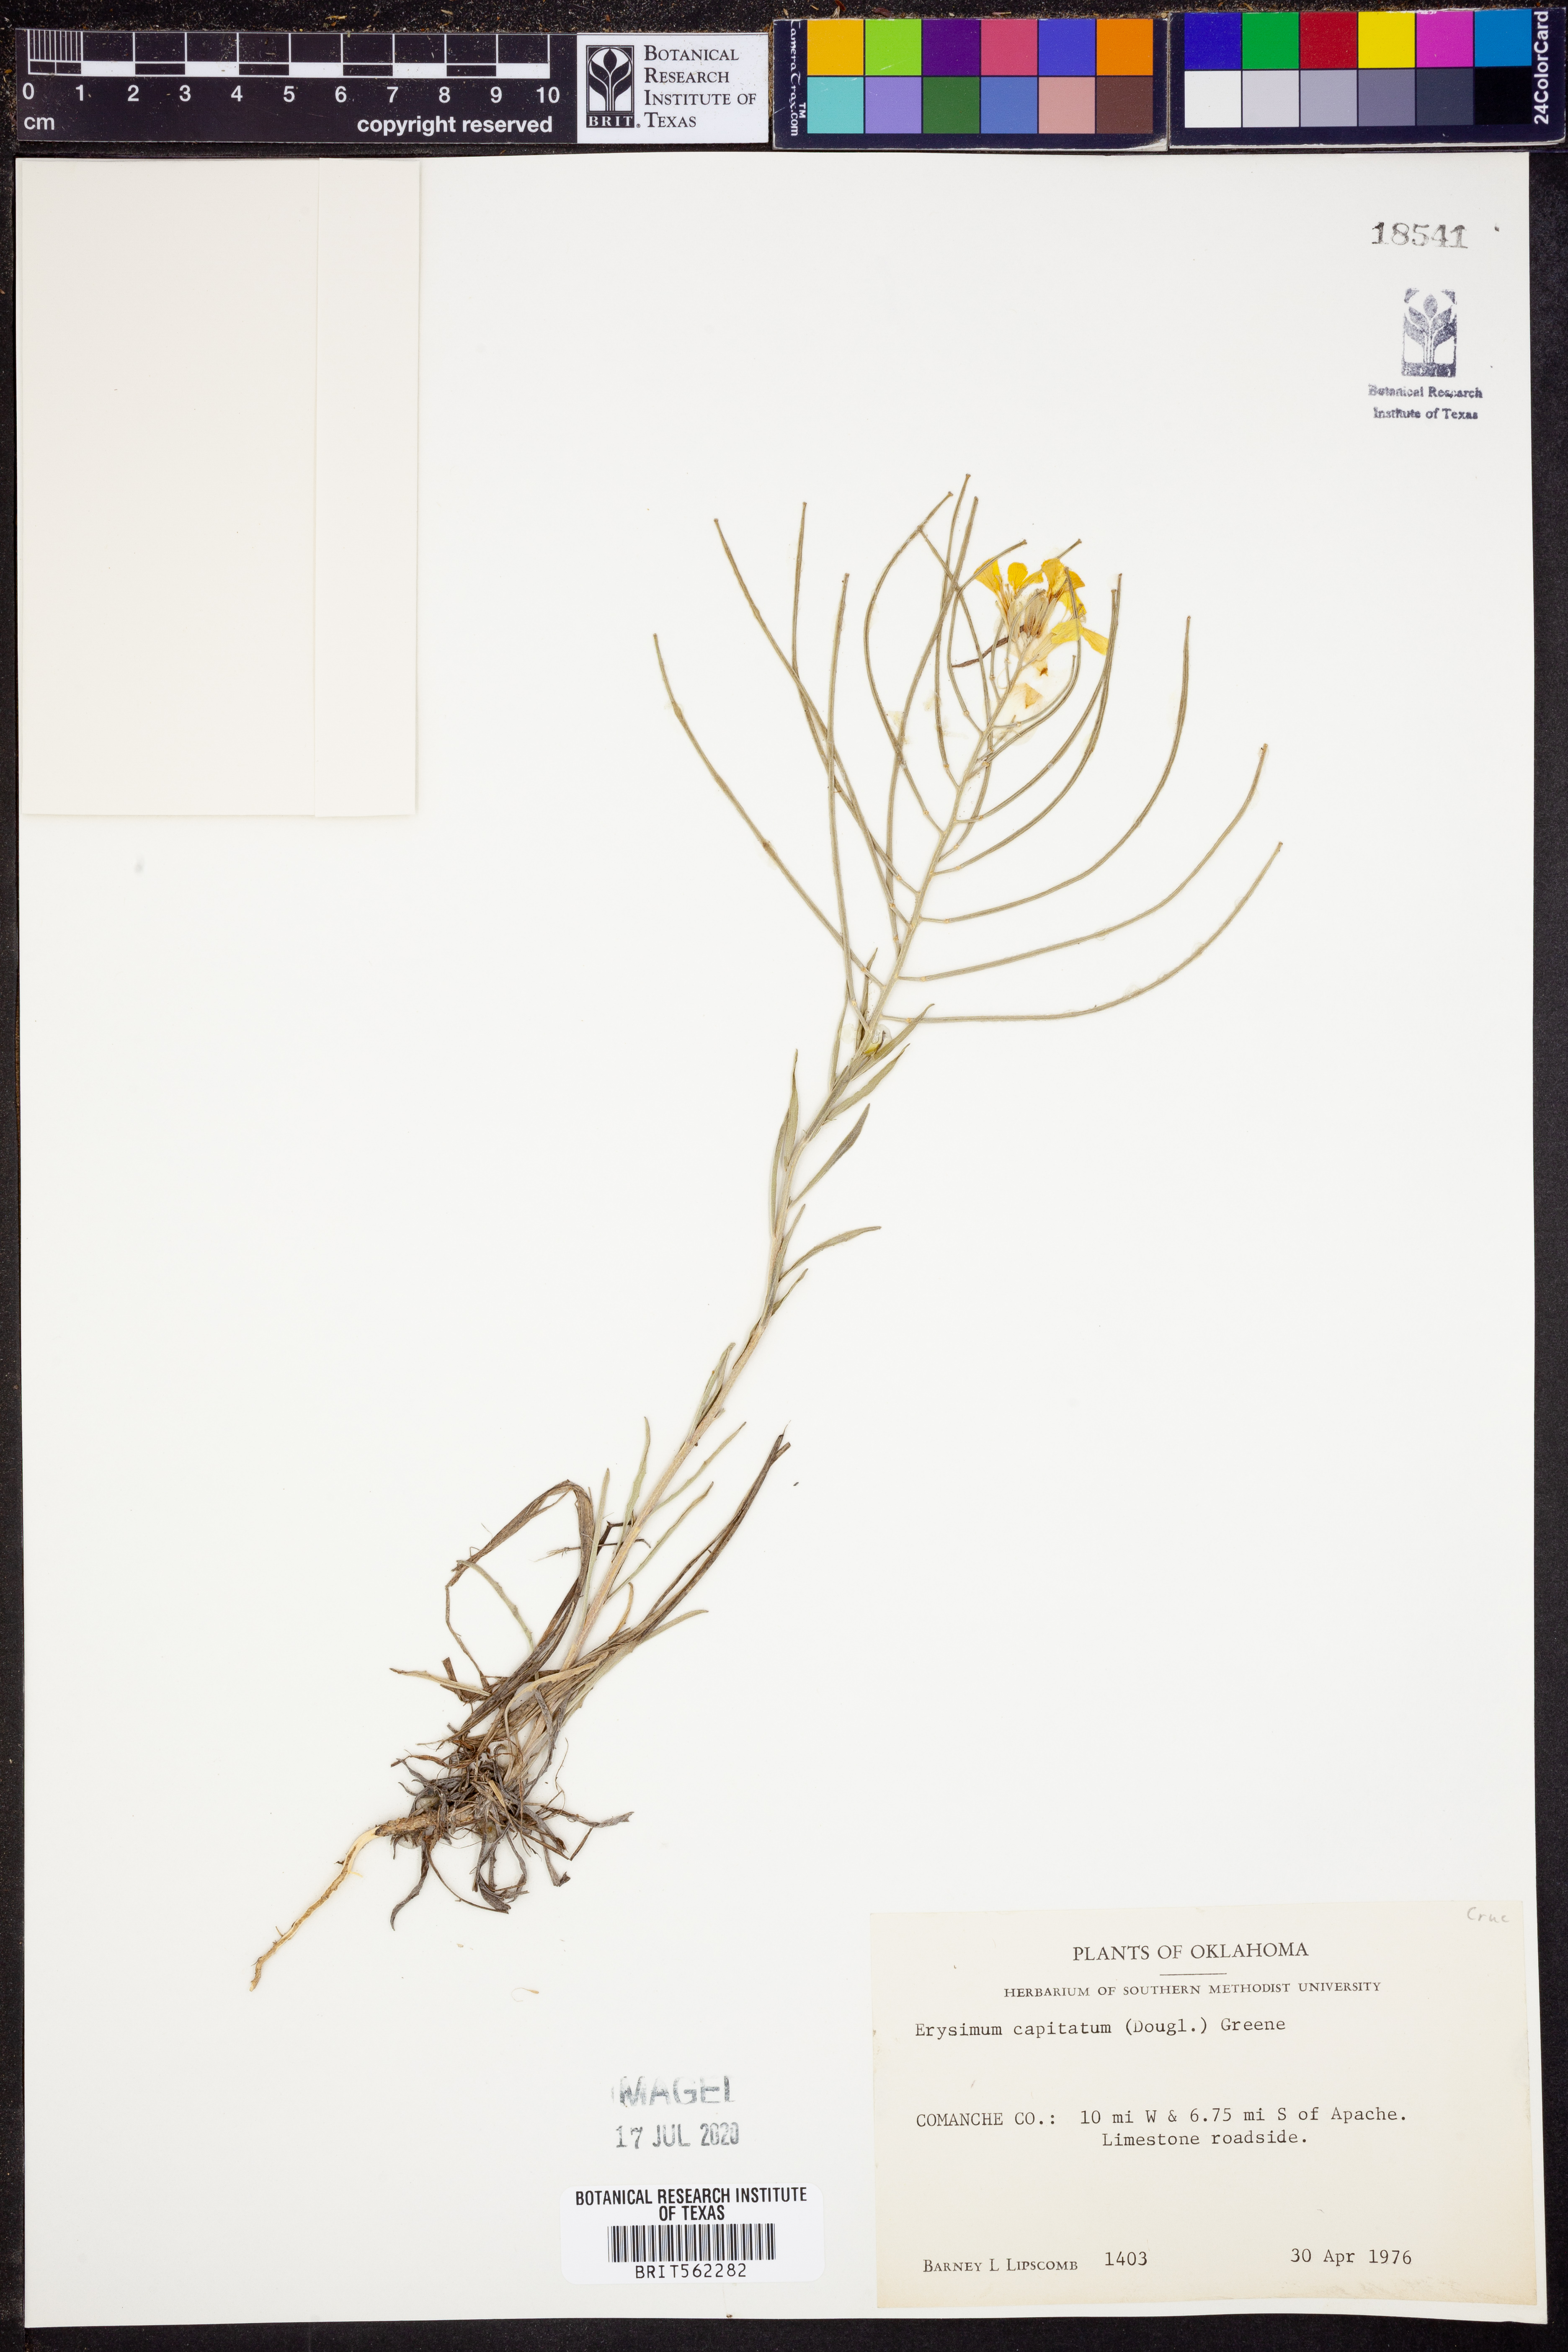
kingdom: Plantae
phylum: Tracheophyta
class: Magnoliopsida
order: Brassicales
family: Brassicaceae
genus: Erysimum
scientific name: Erysimum capitatum
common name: Western wallflower
